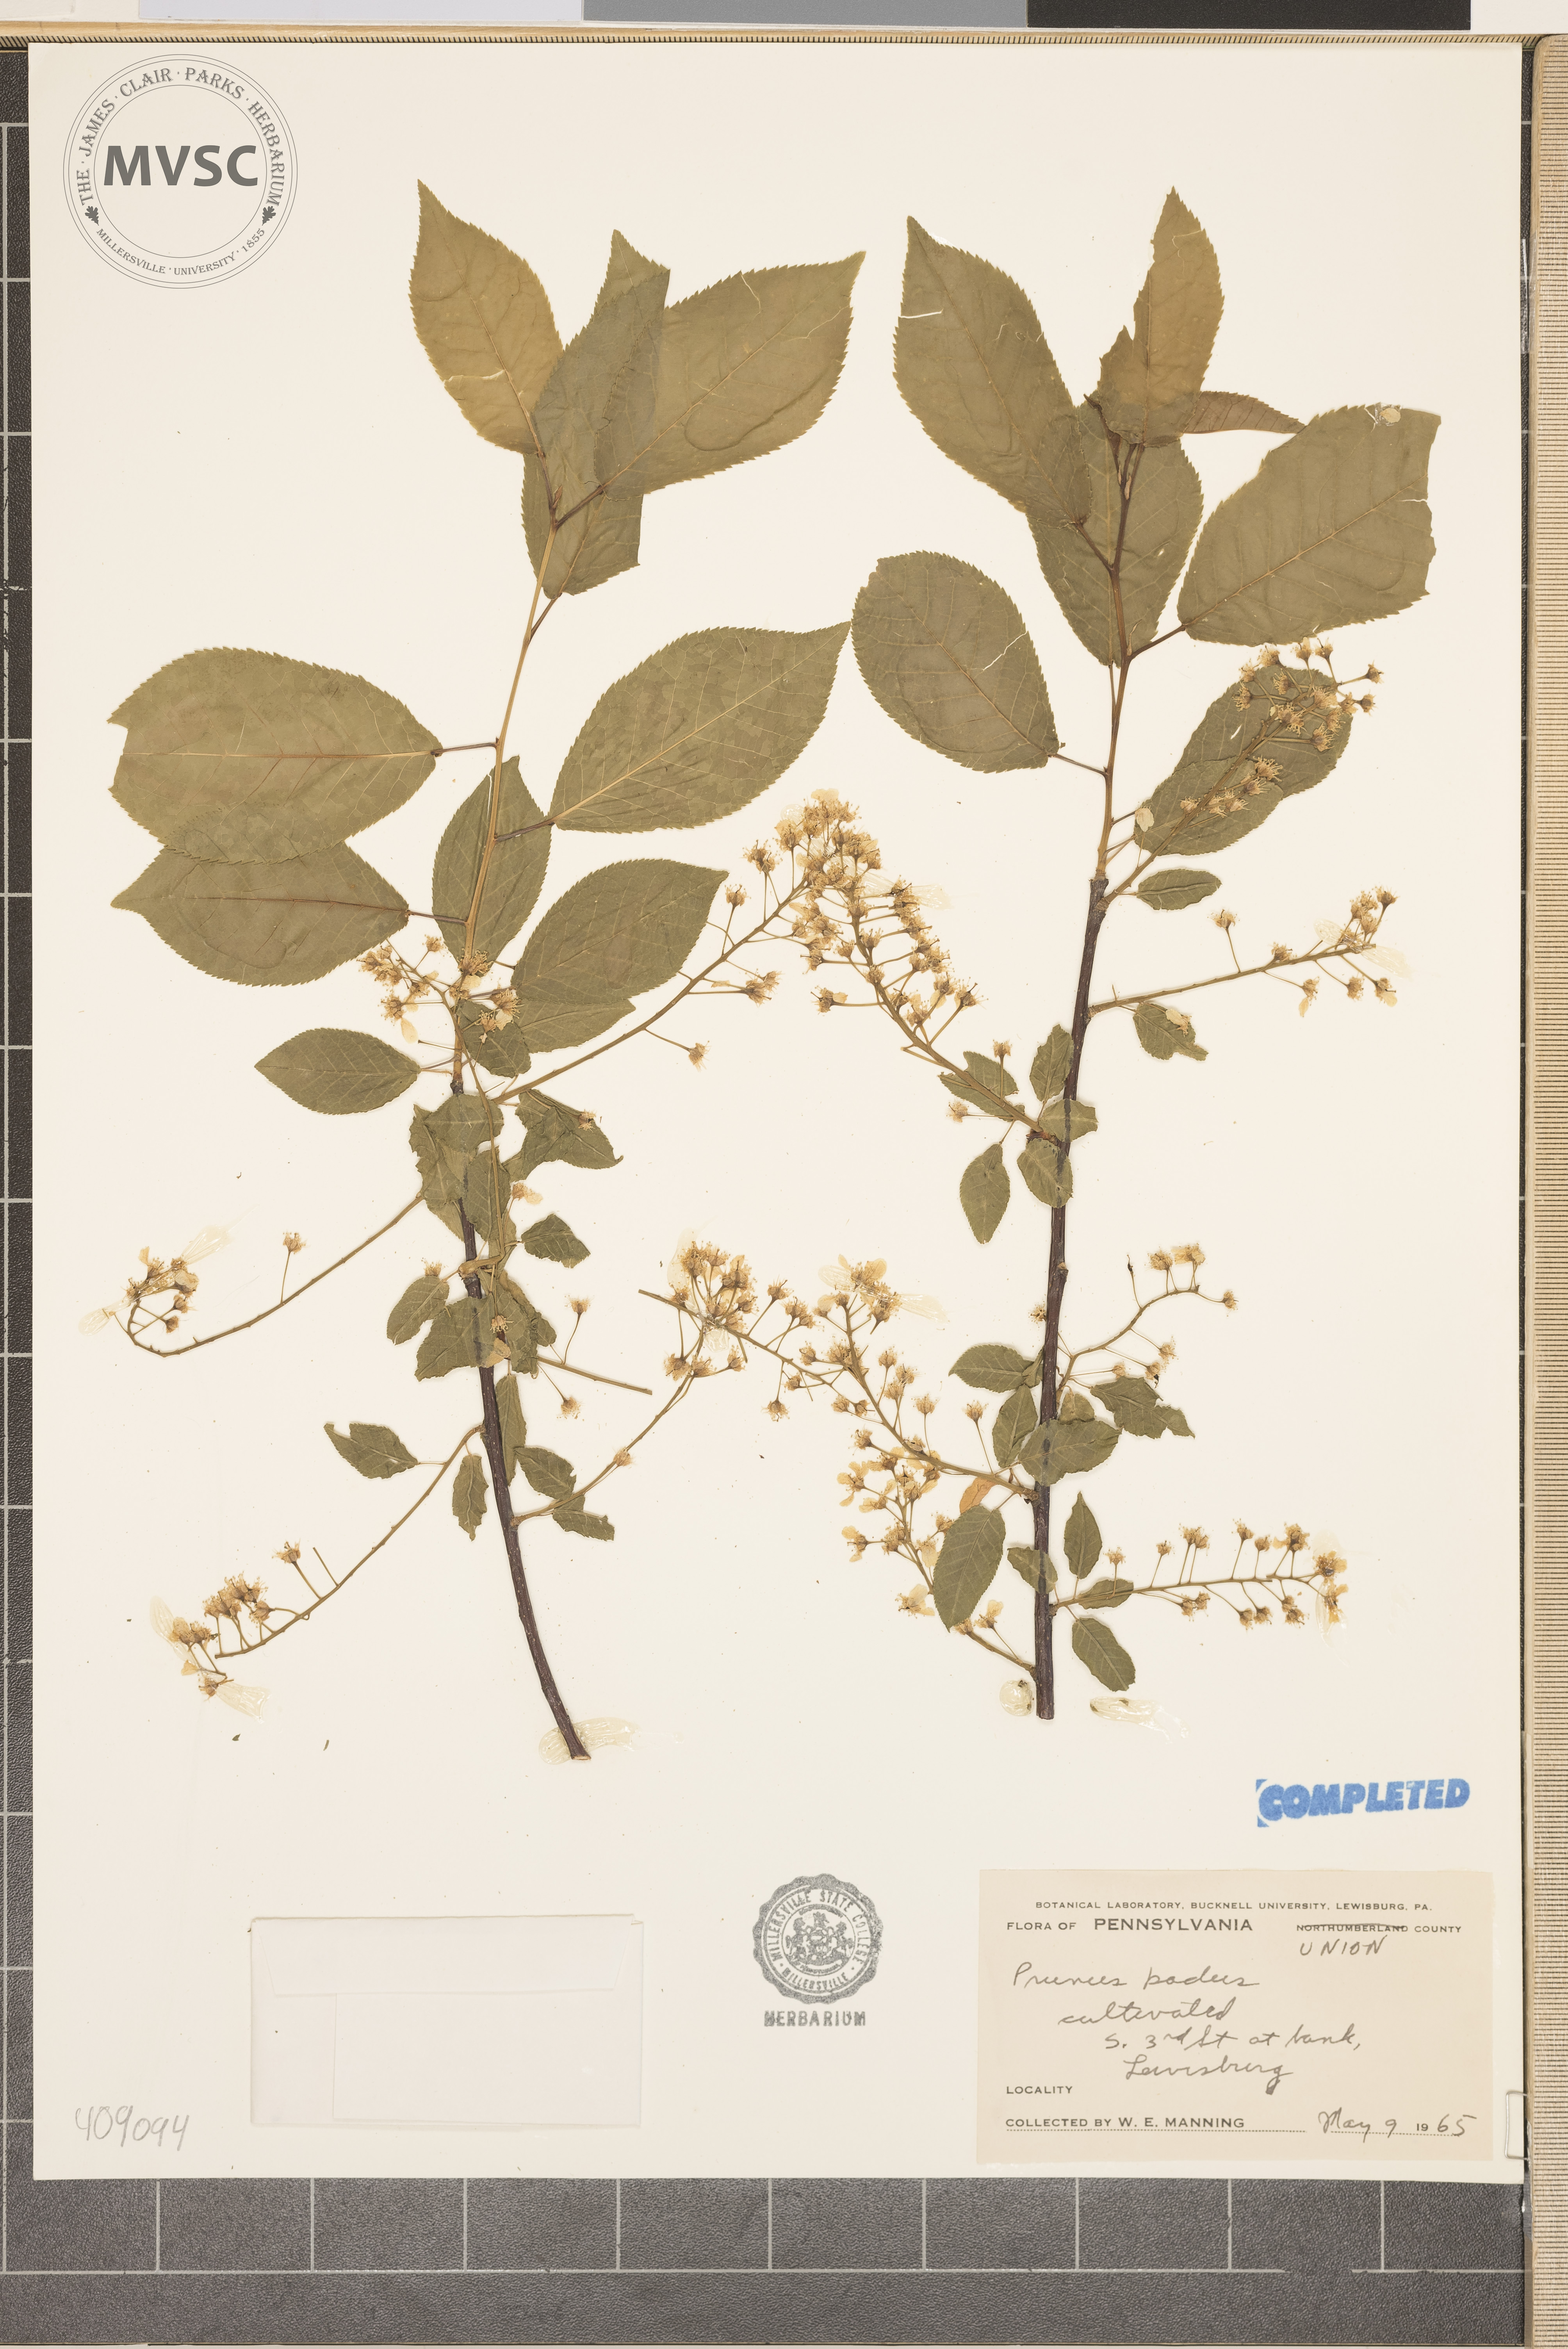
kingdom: Plantae
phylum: Tracheophyta
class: Magnoliopsida
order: Rosales
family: Rosaceae
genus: Prunus
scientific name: Prunus padus
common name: bird cherry
